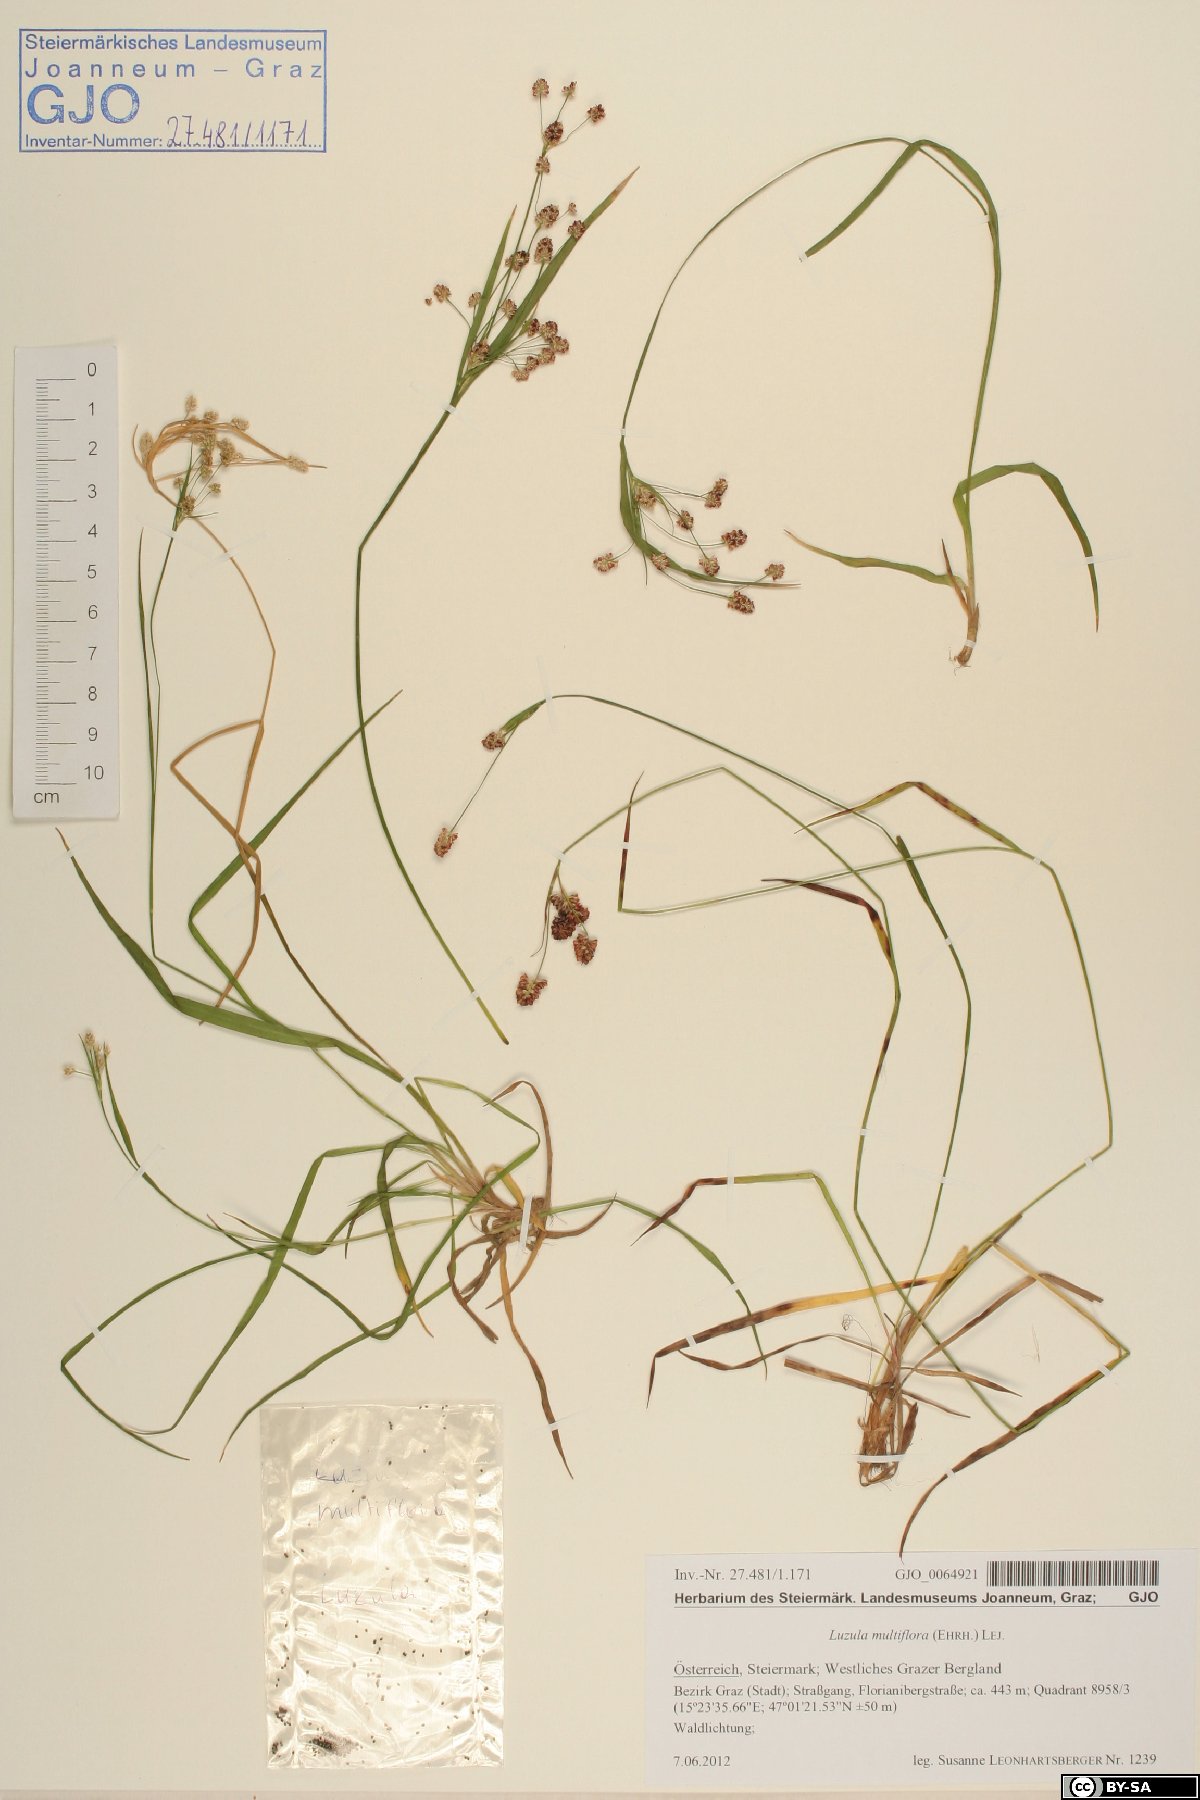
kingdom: Plantae
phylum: Tracheophyta
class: Liliopsida
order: Poales
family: Juncaceae
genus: Luzula
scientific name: Luzula multiflora
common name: Heath wood-rush
